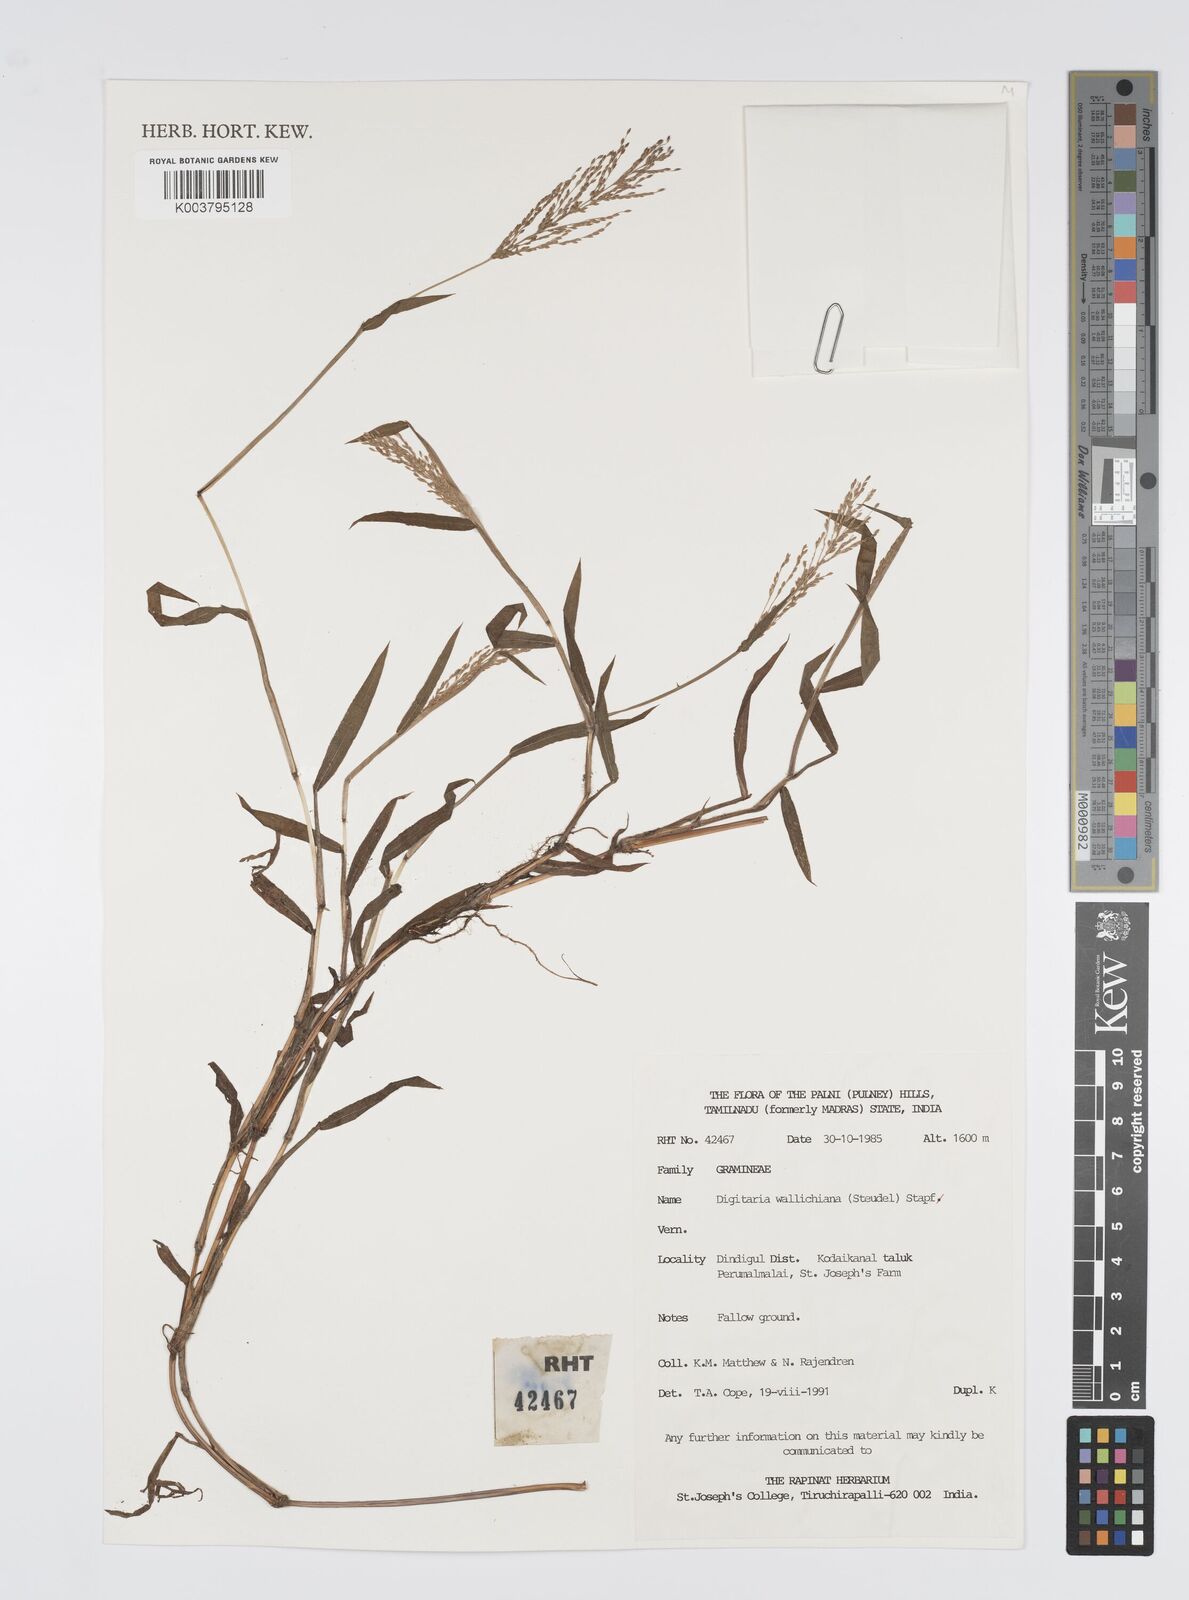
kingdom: Plantae
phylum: Tracheophyta
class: Liliopsida
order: Poales
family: Poaceae
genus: Digitaria
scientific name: Digitaria wallichiana
